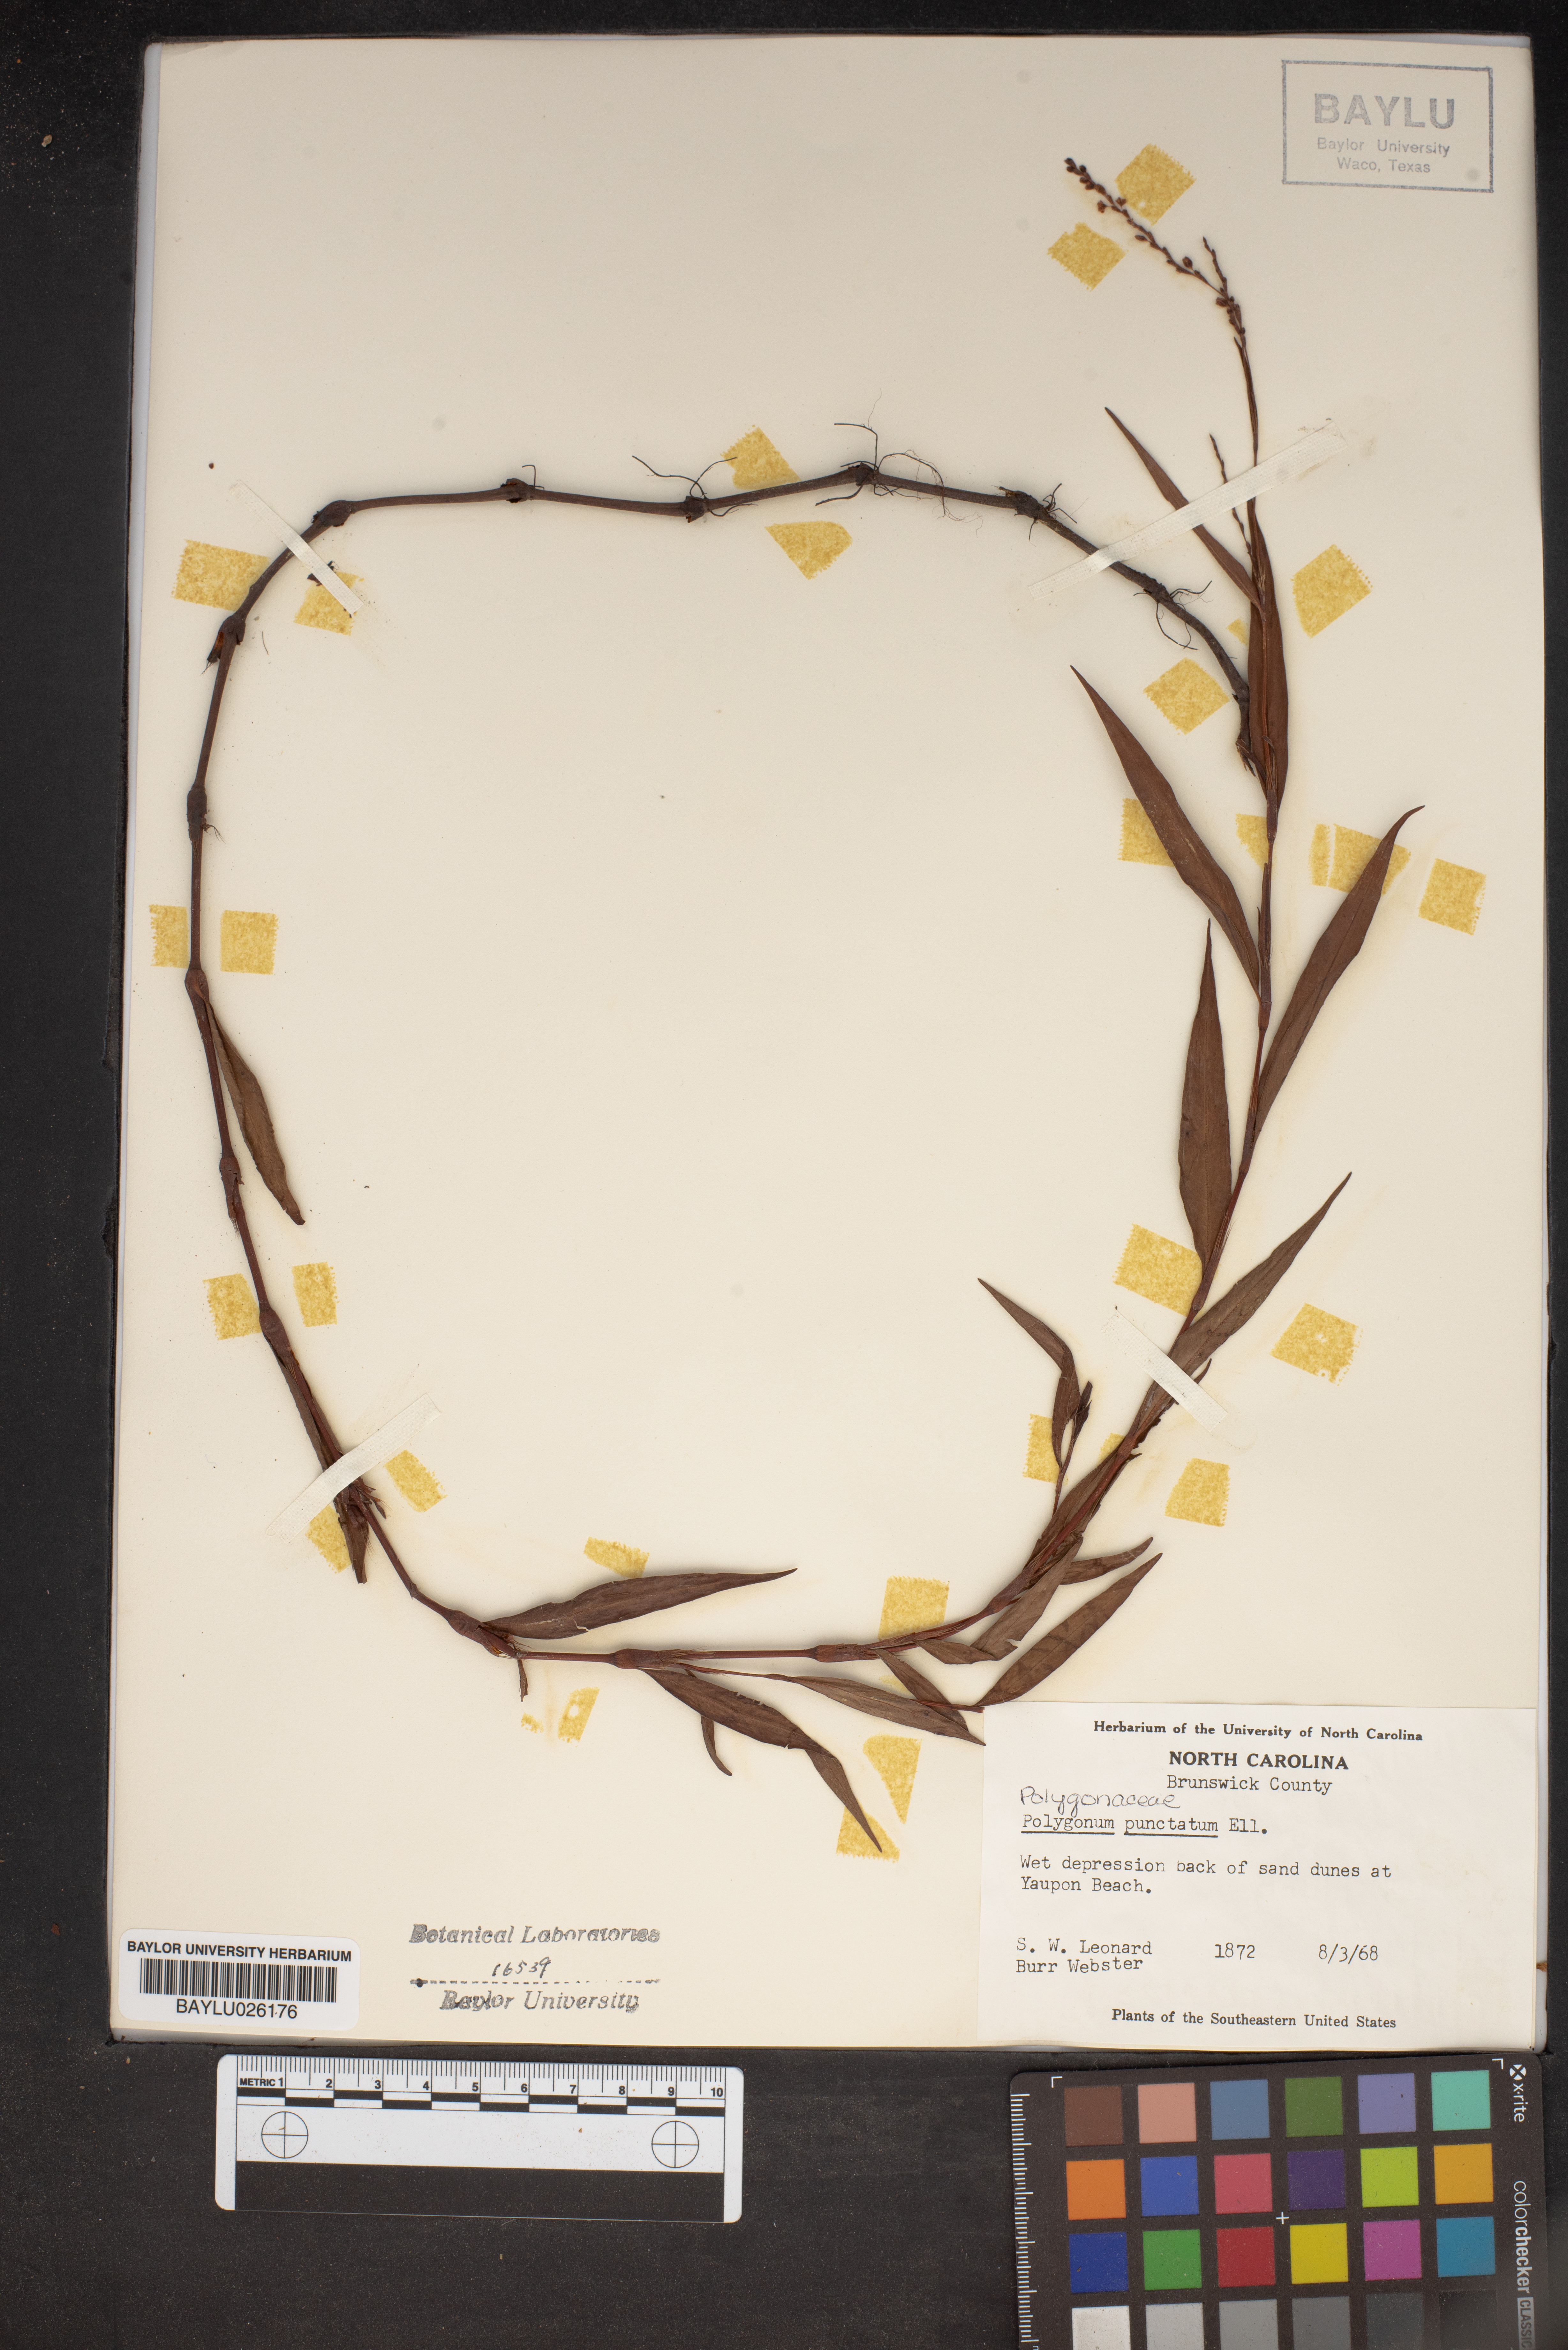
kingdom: Plantae
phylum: Tracheophyta
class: Magnoliopsida
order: Caryophyllales
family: Polygonaceae
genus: Persicaria
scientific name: Persicaria punctata
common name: Dotted smartweed
